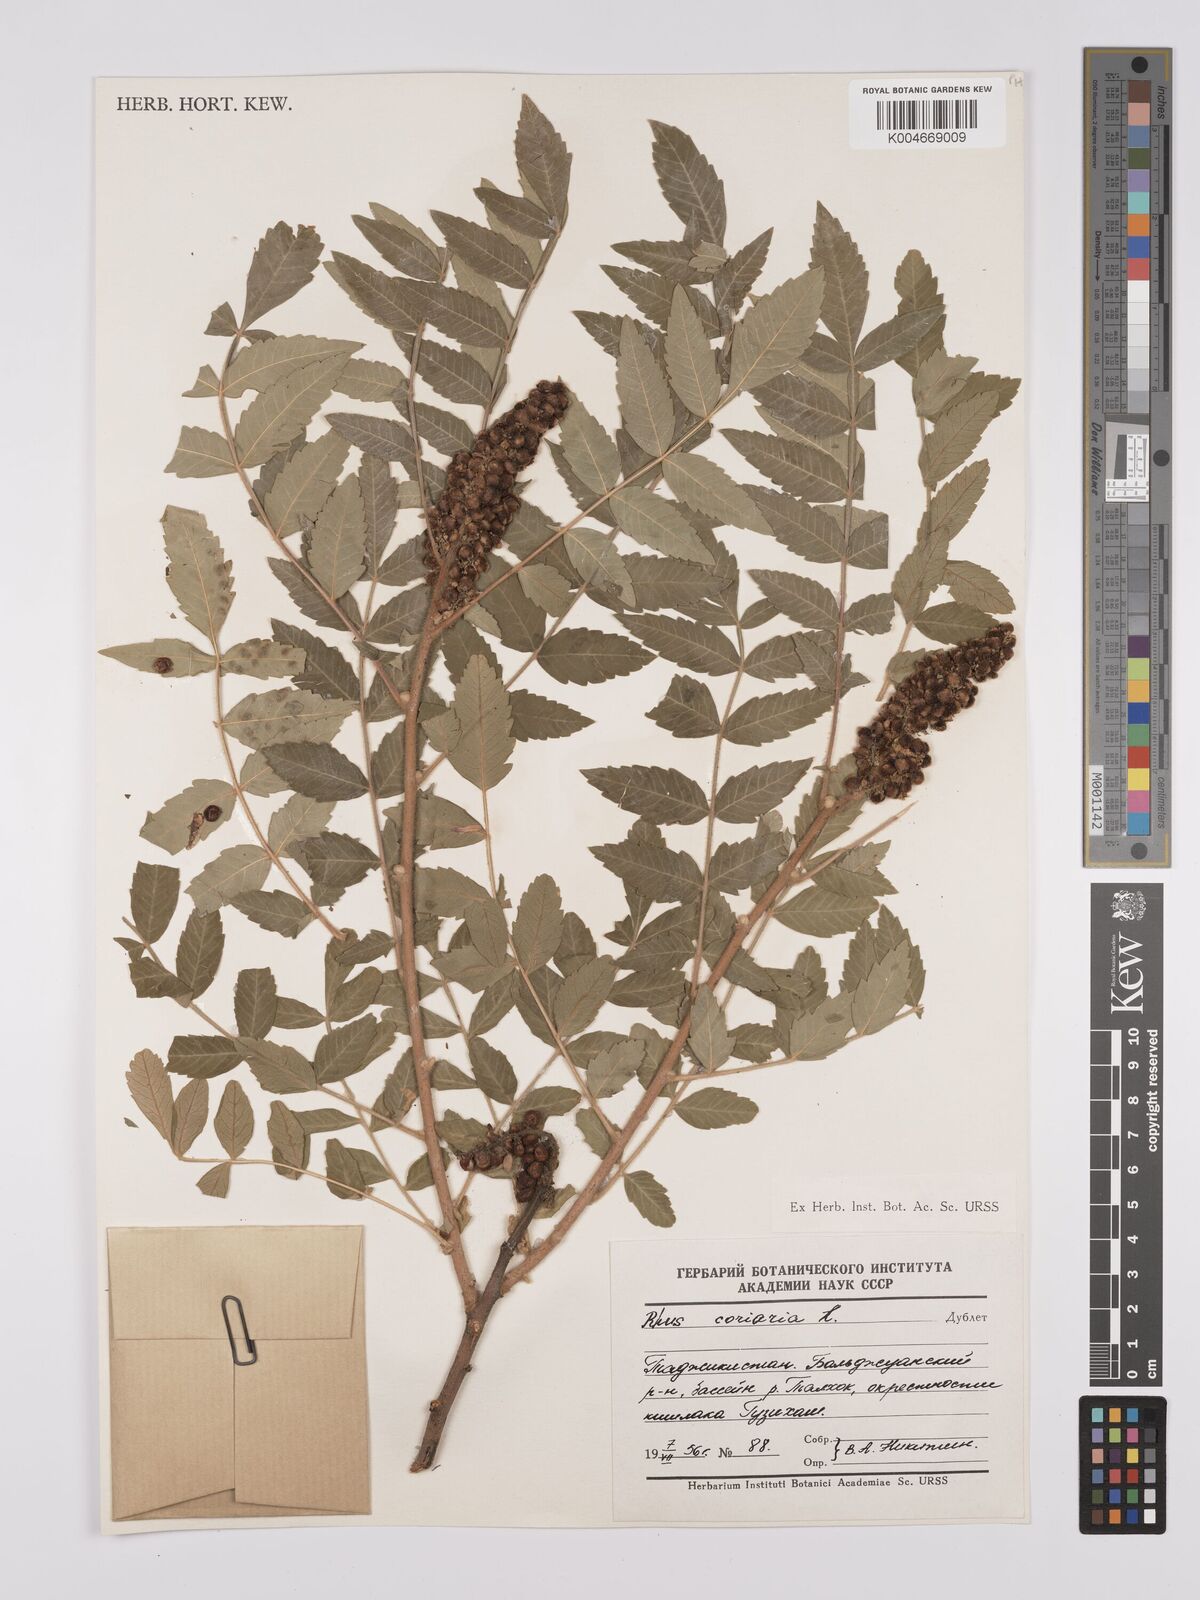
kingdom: Plantae
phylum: Tracheophyta
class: Magnoliopsida
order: Sapindales
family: Anacardiaceae
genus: Rhus
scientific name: Rhus coriaria
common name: Tanner's sumach
